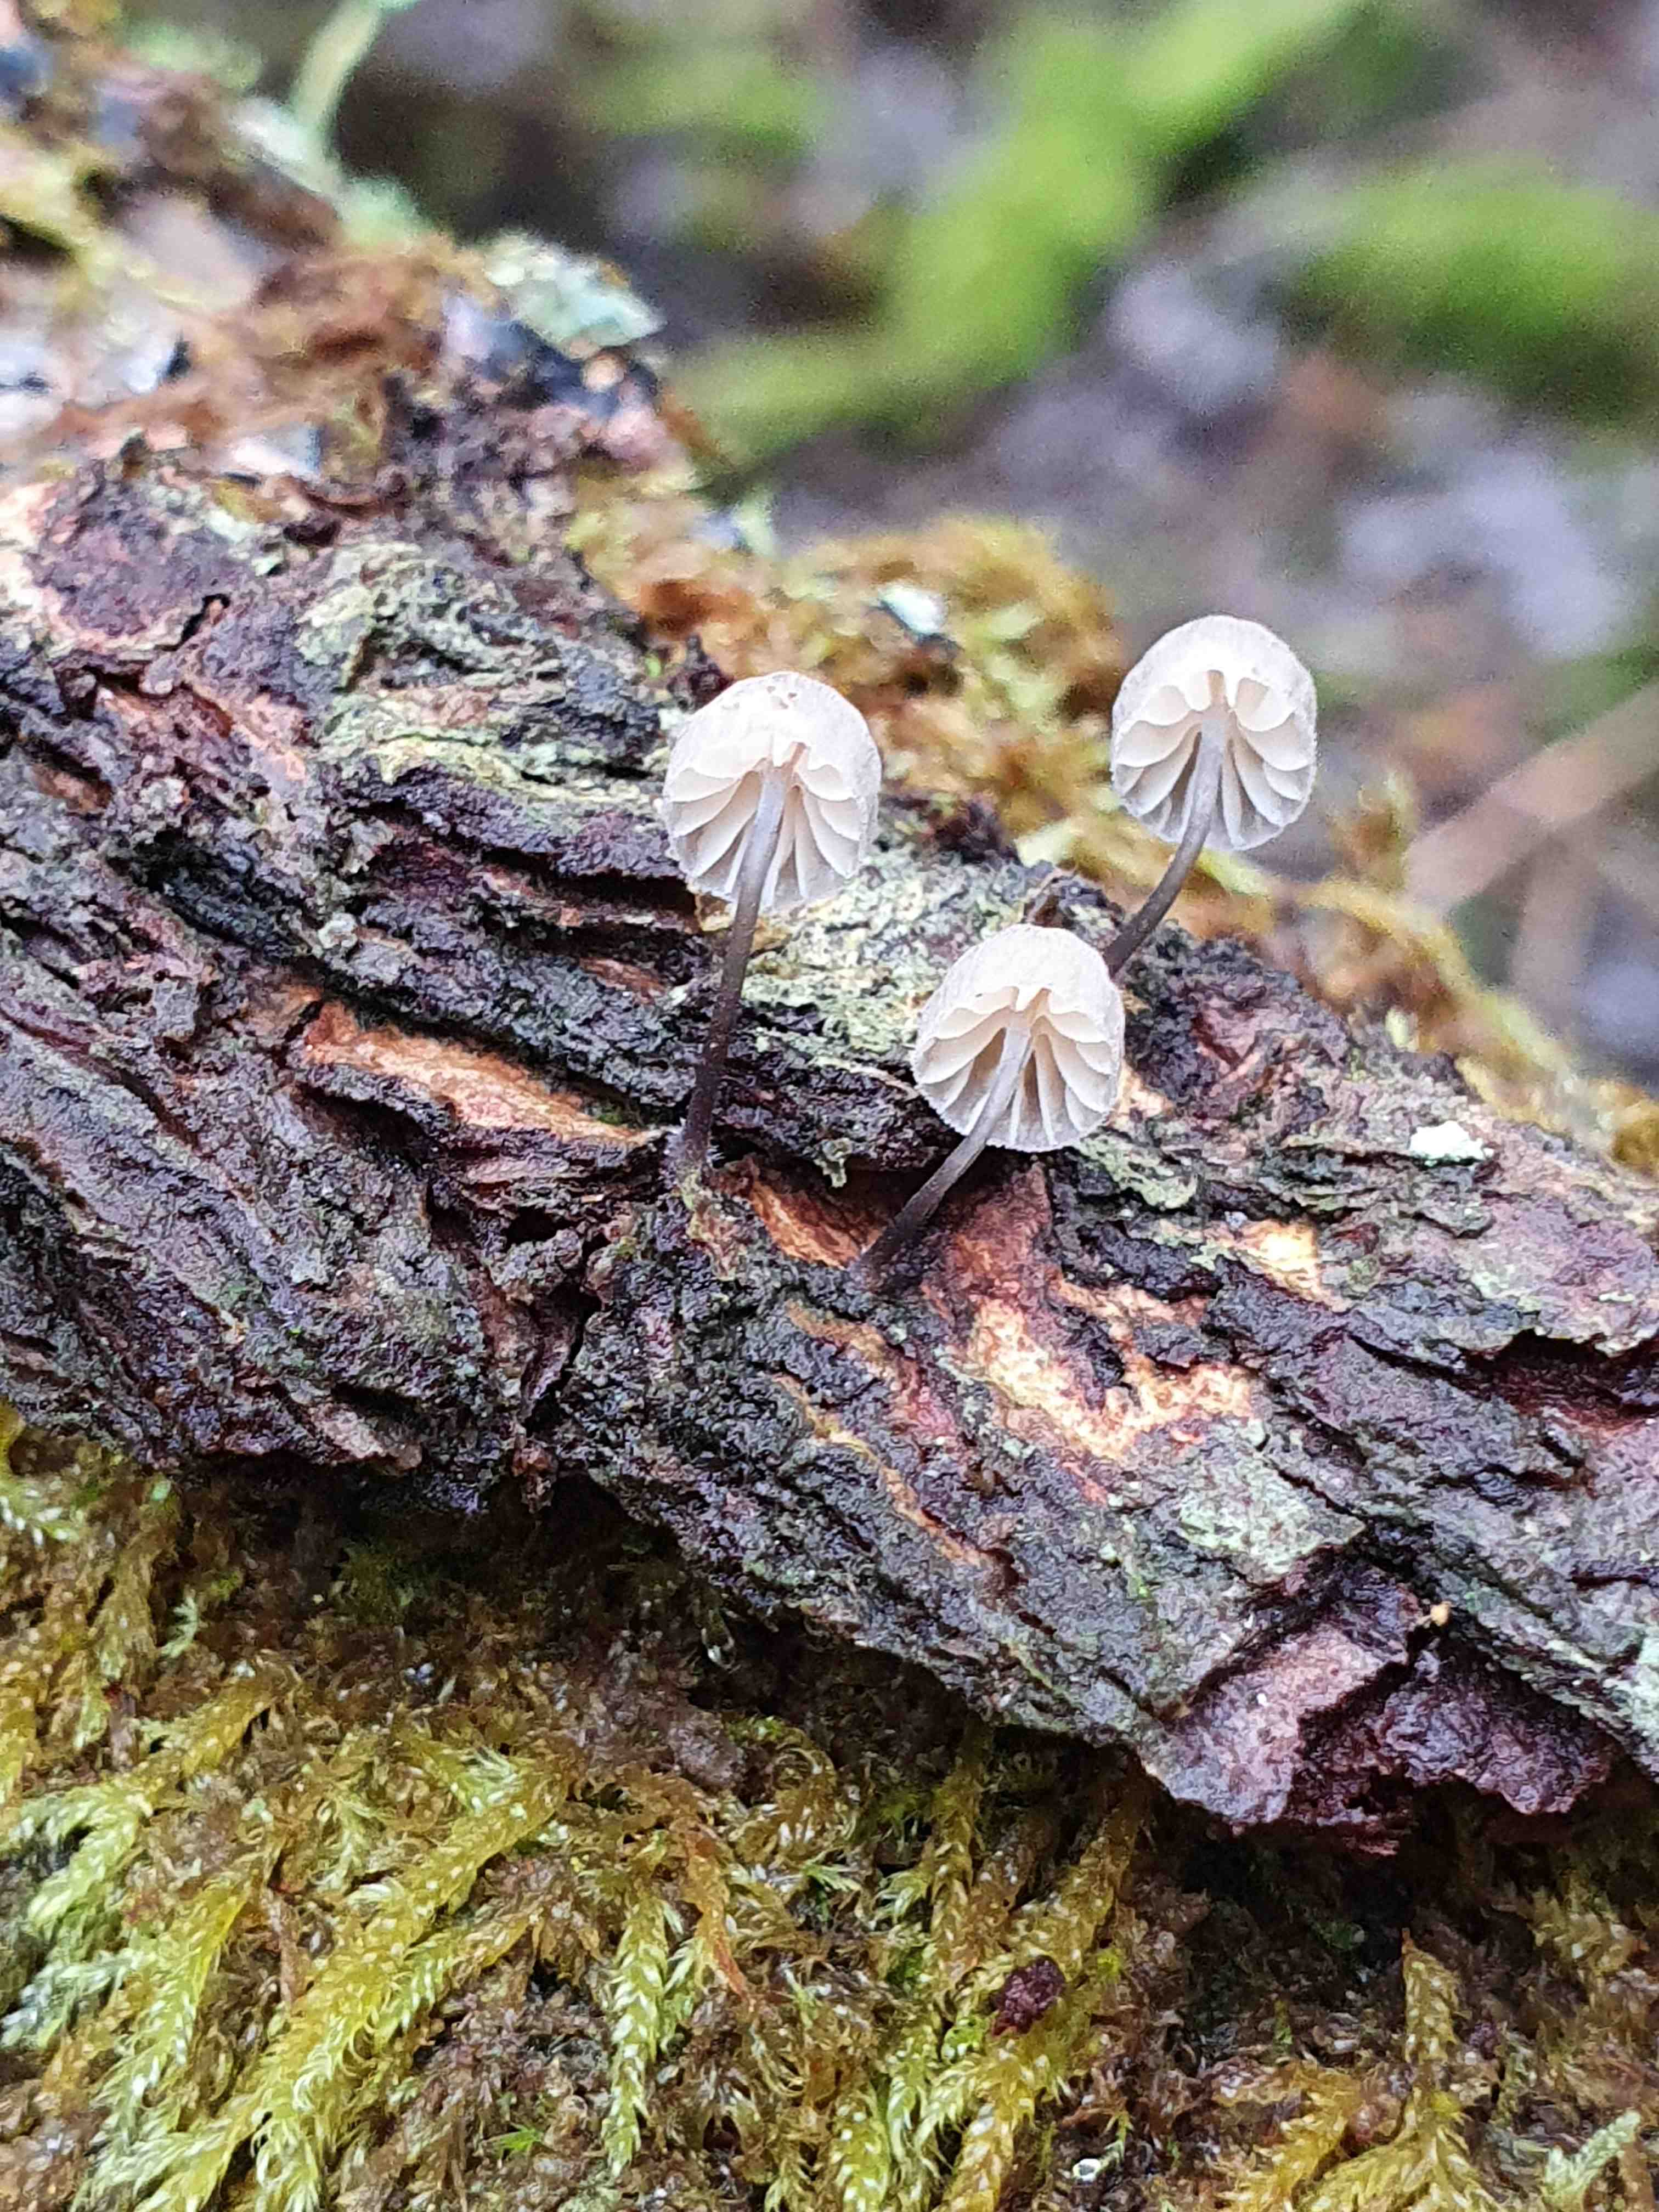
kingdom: Fungi
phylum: Basidiomycota
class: Agaricomycetes
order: Agaricales
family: Mycenaceae
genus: Mycena
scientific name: Mycena
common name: huesvamp
